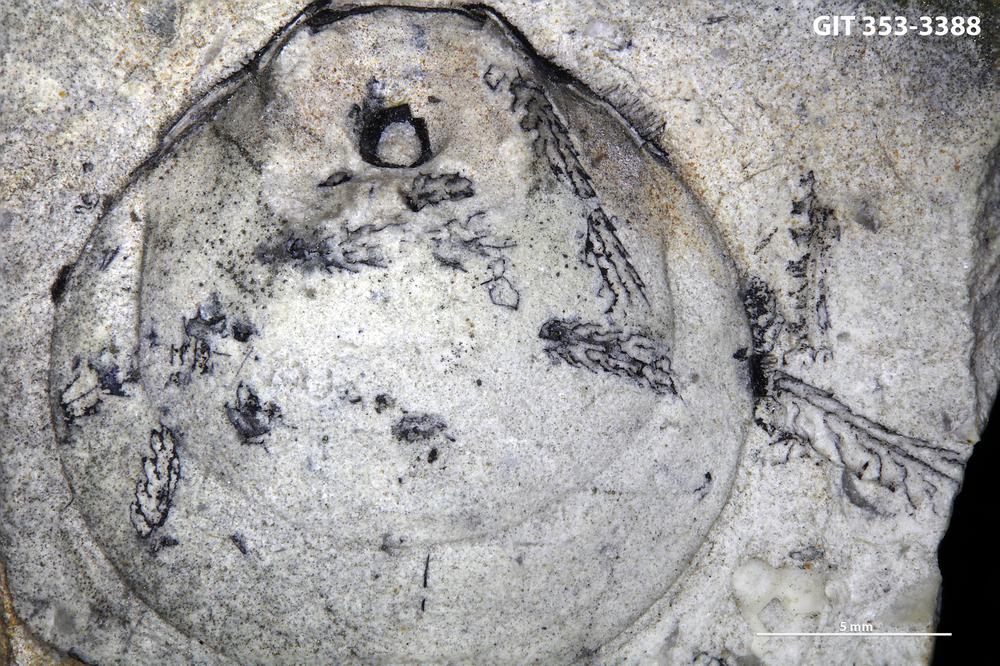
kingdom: Animalia
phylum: Hemichordata
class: Pterobranchia
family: Diplograptidae
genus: Oepikograptus
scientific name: Oepikograptus Diplograptus bekkeri
